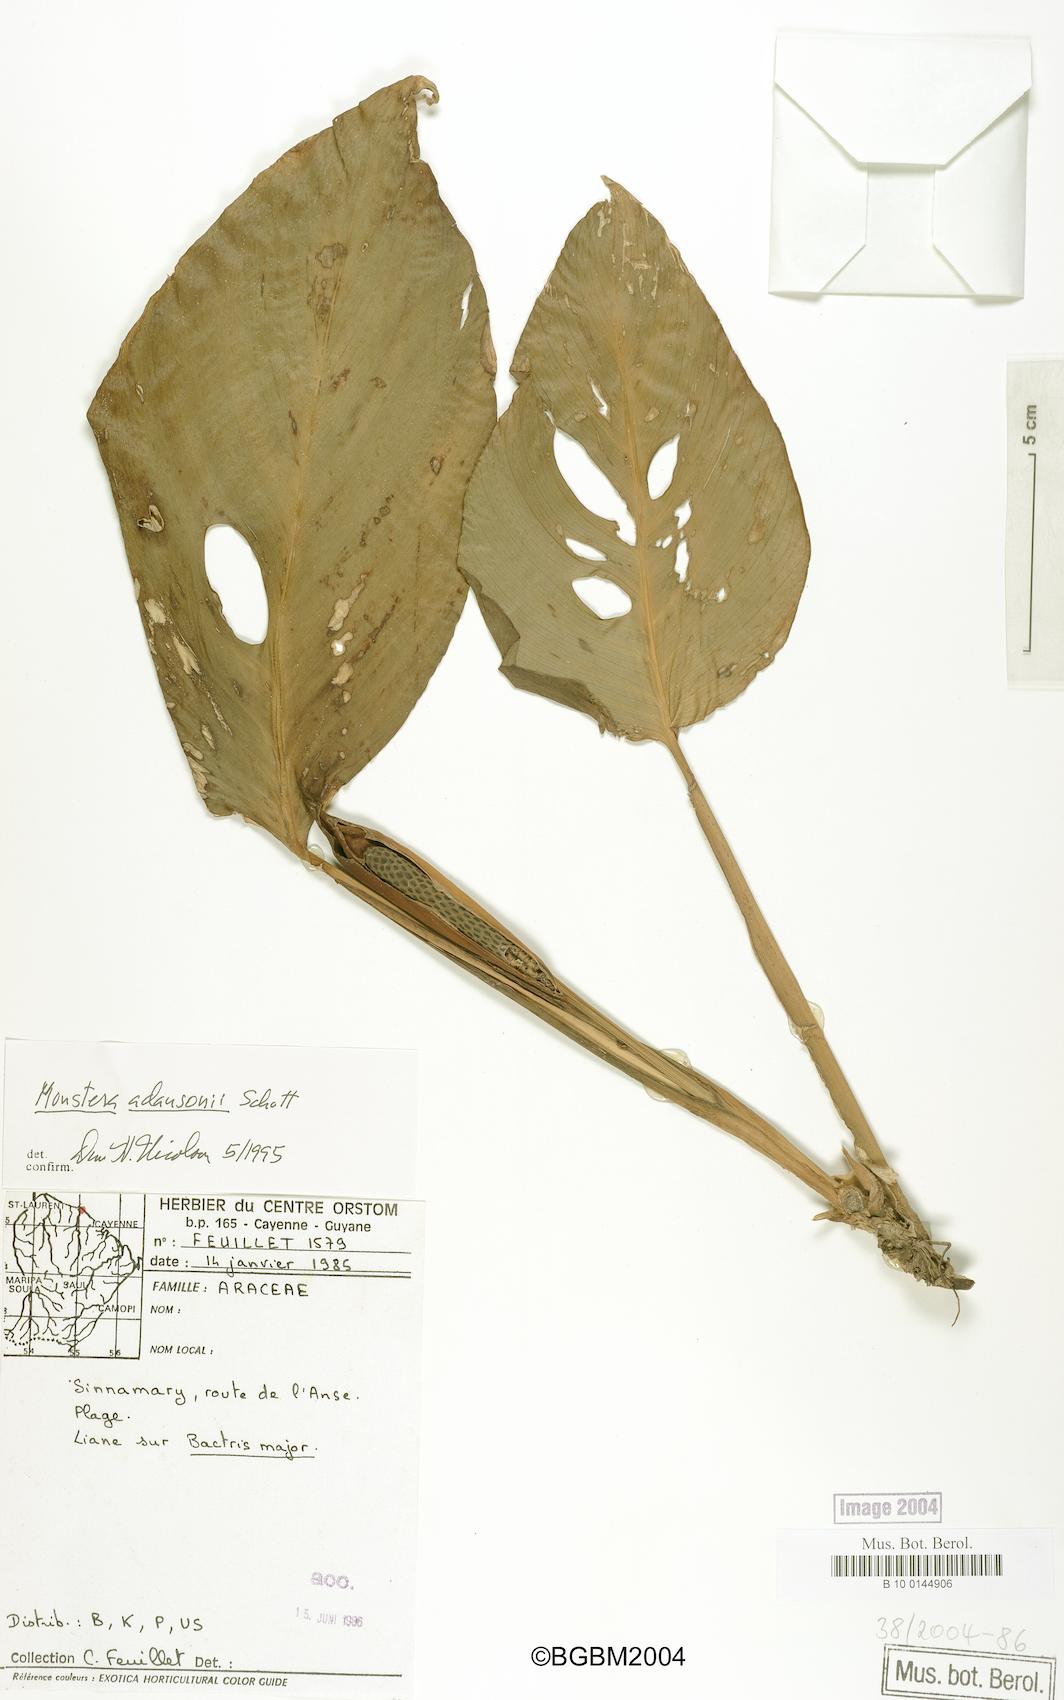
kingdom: Plantae
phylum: Tracheophyta
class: Liliopsida
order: Alismatales
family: Araceae
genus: Monstera
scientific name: Monstera adansonii
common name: Tarovine
